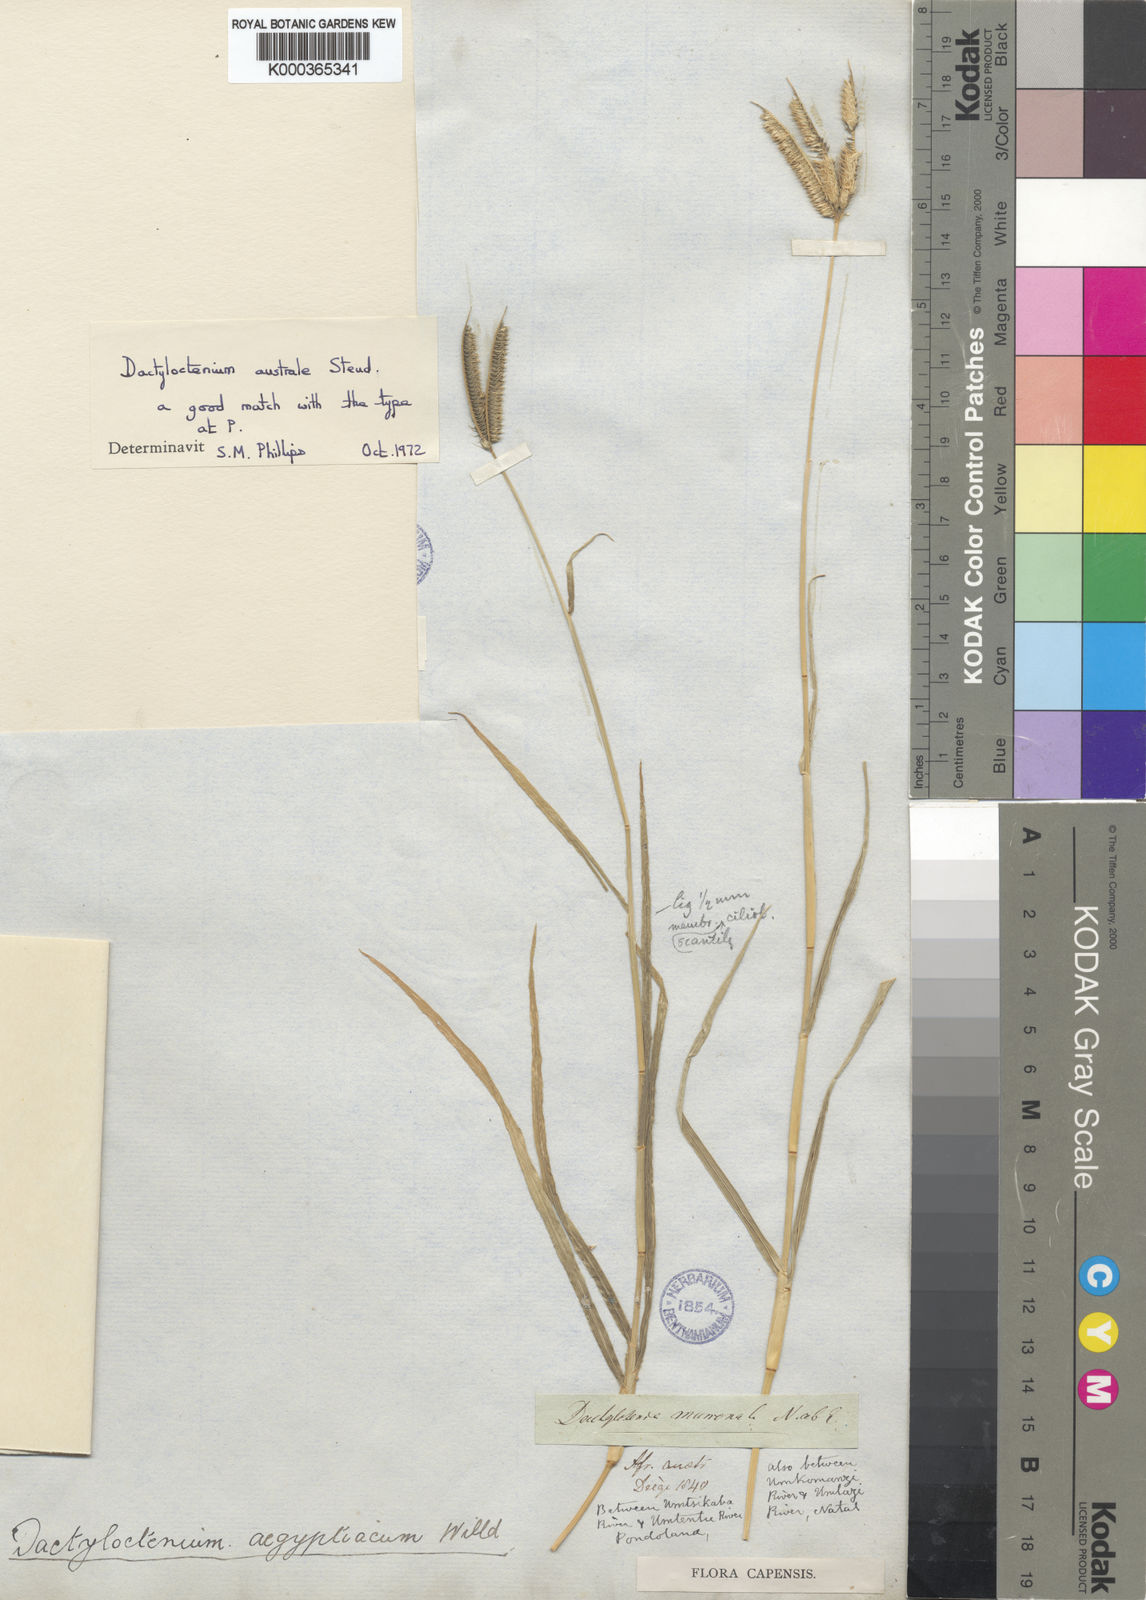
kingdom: Plantae
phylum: Tracheophyta
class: Liliopsida
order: Poales
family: Poaceae
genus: Dactyloctenium
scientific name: Dactyloctenium australe
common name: Durban grass
